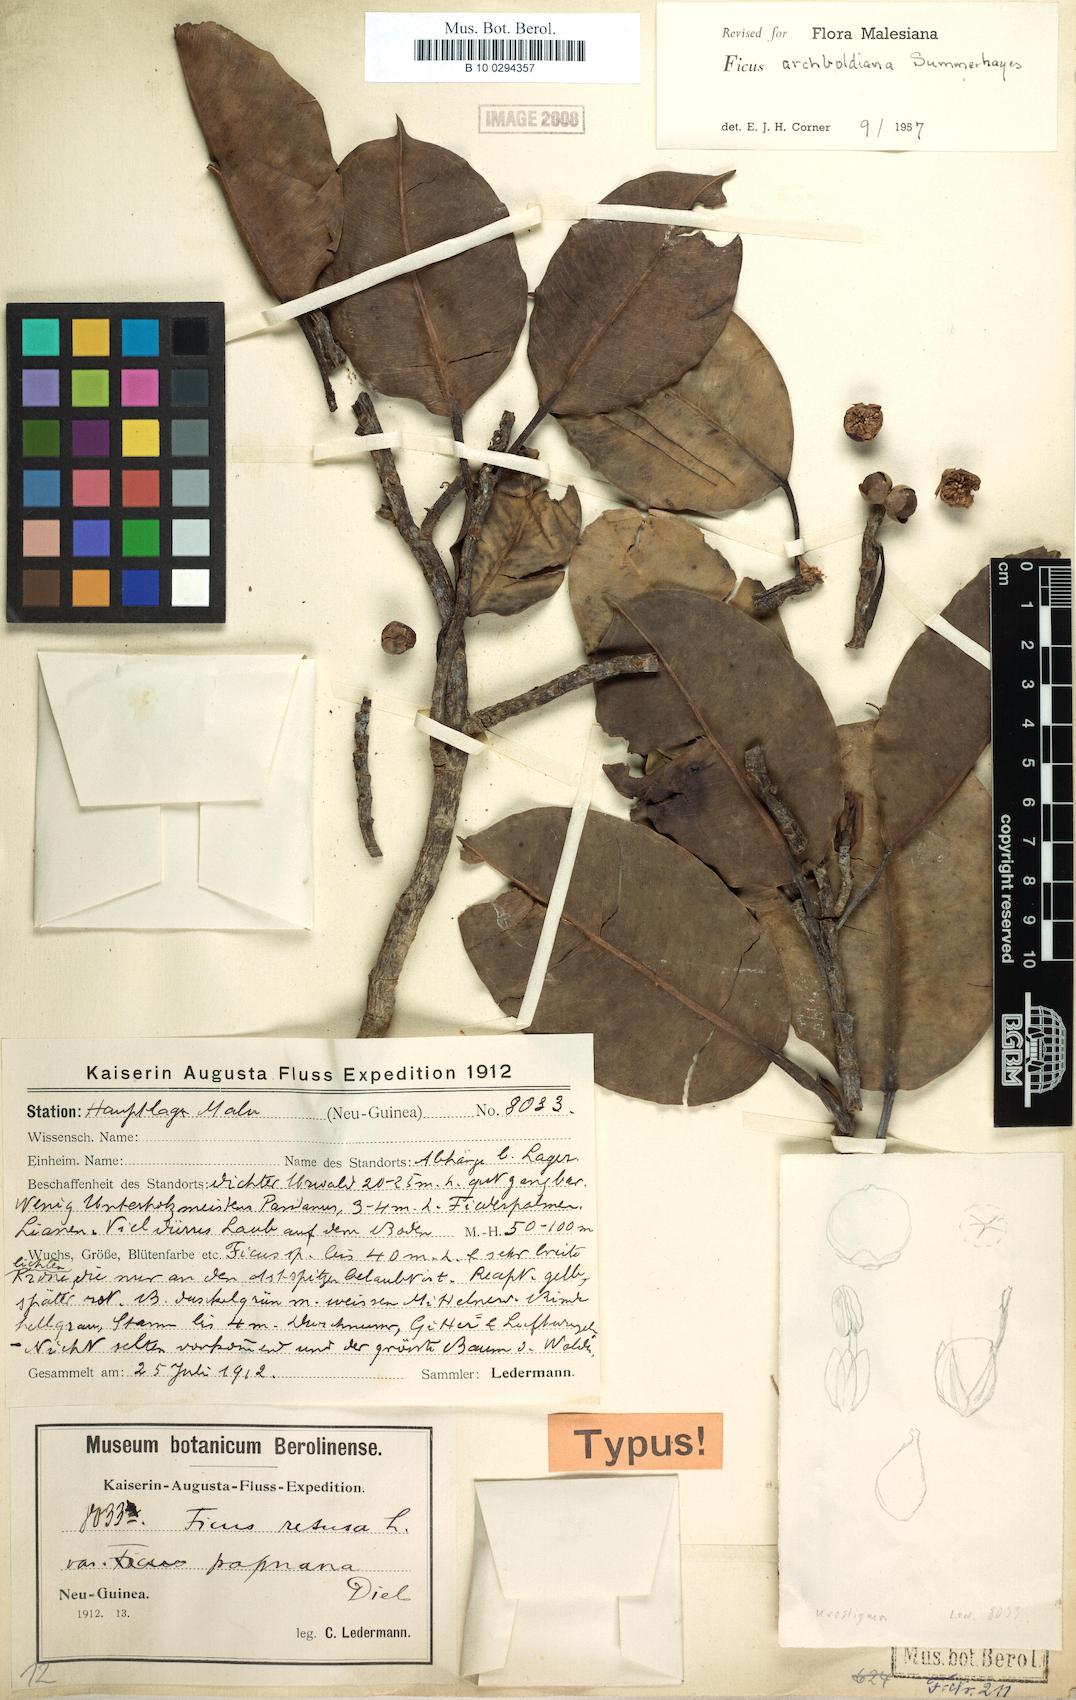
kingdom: Plantae
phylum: Tracheophyta
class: Magnoliopsida
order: Rosales
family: Moraceae
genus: Ficus
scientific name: Ficus archboldiana
